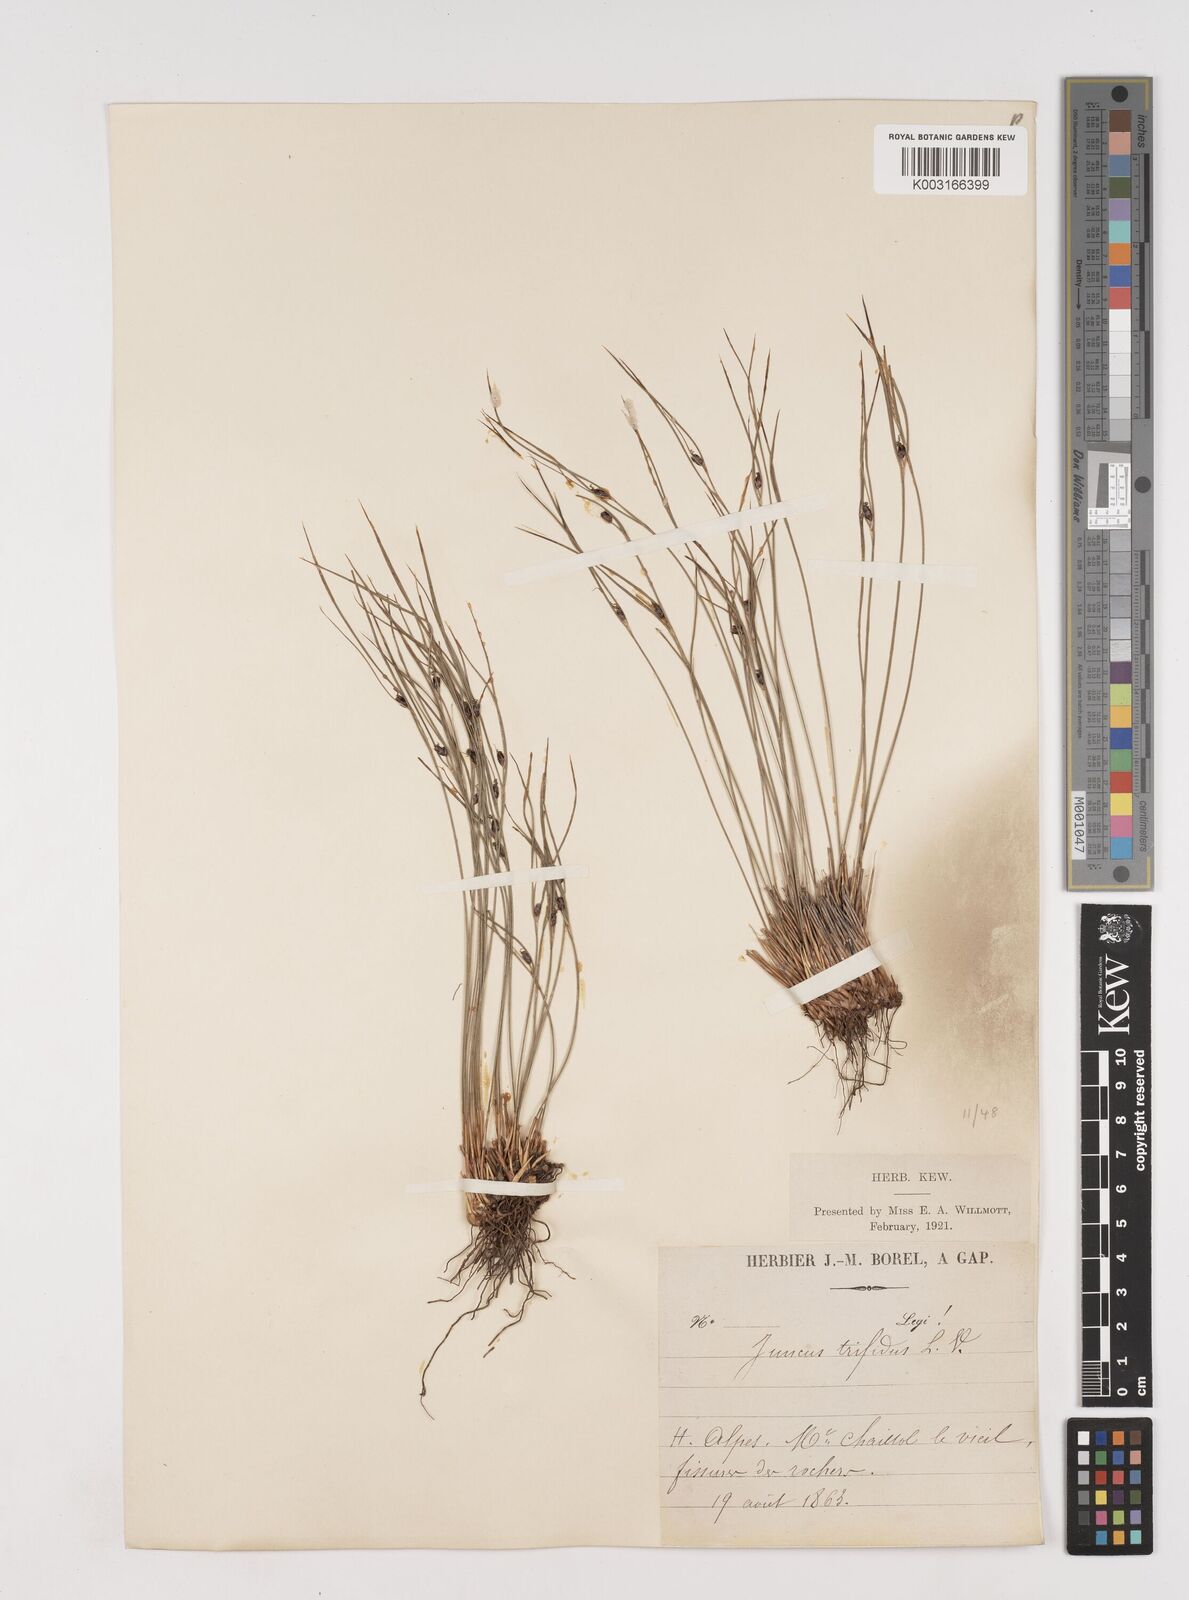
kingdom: Plantae
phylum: Tracheophyta
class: Liliopsida
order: Poales
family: Juncaceae
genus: Oreojuncus
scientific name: Oreojuncus trifidus
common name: Highland rush
